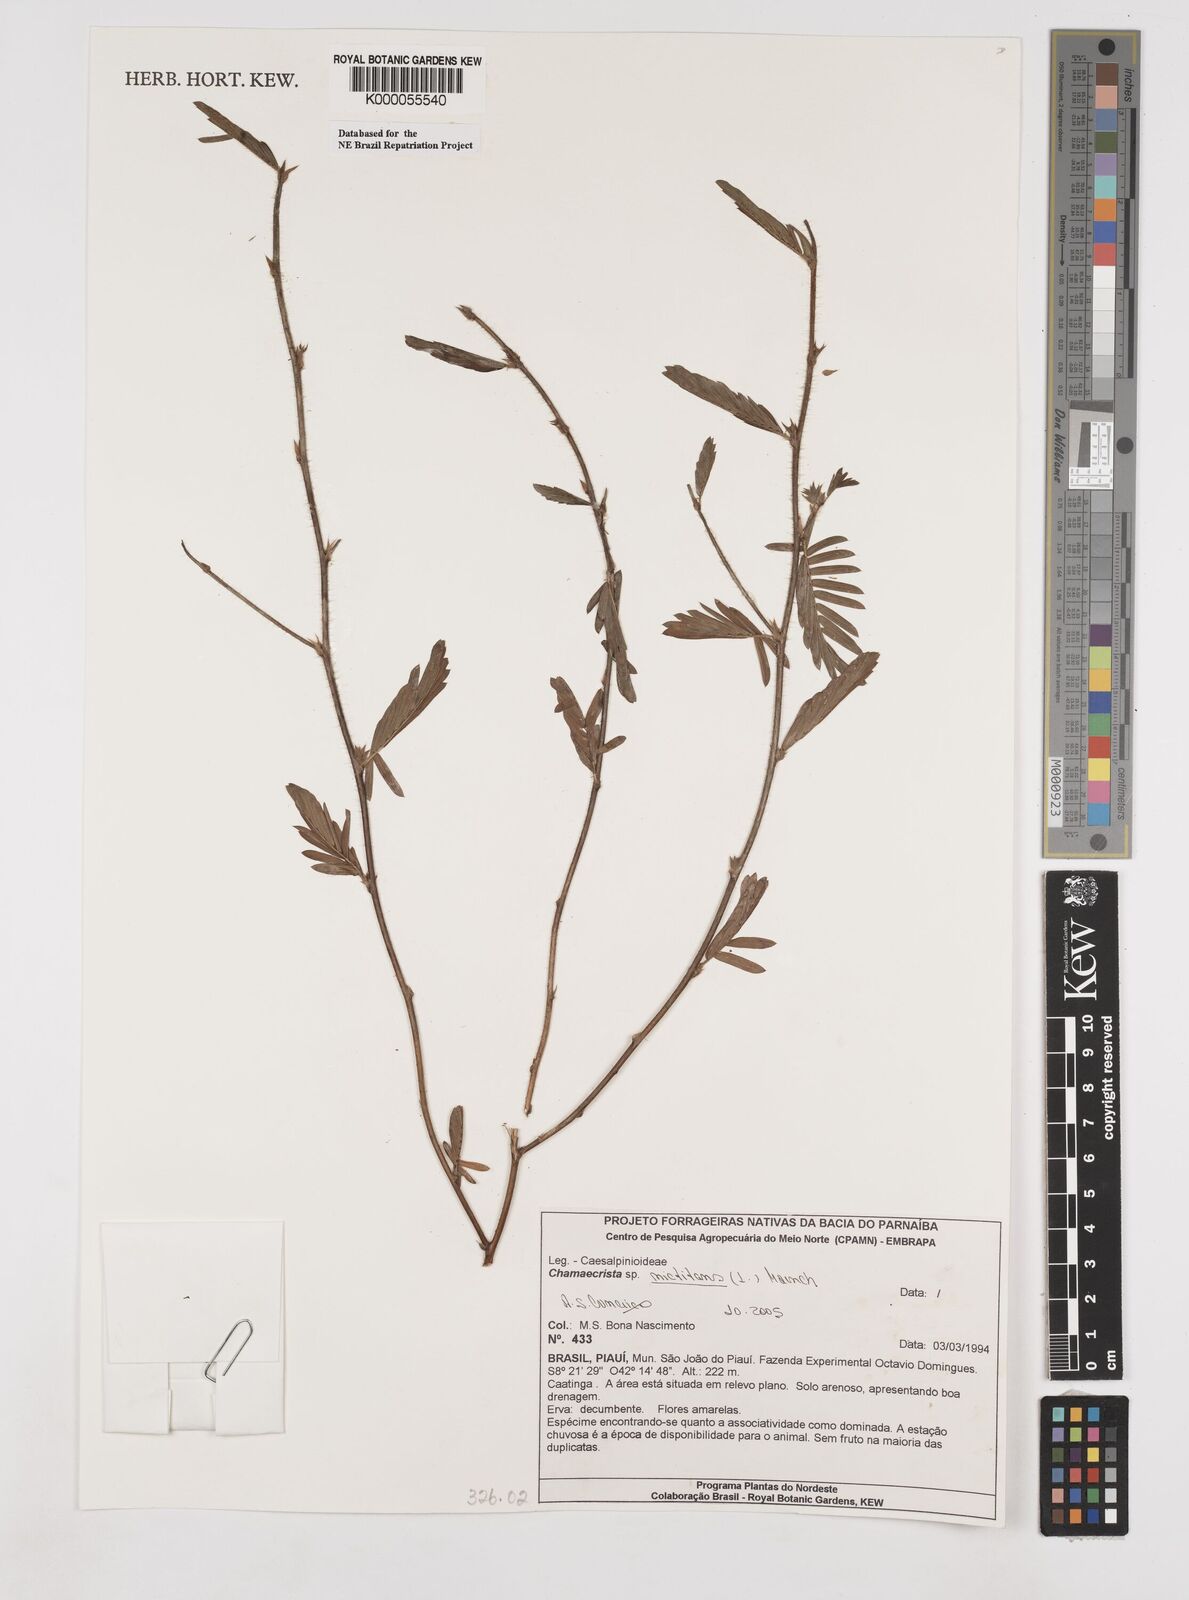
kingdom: Plantae
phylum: Tracheophyta
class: Magnoliopsida
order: Fabales
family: Fabaceae
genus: Chamaecrista
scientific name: Chamaecrista
